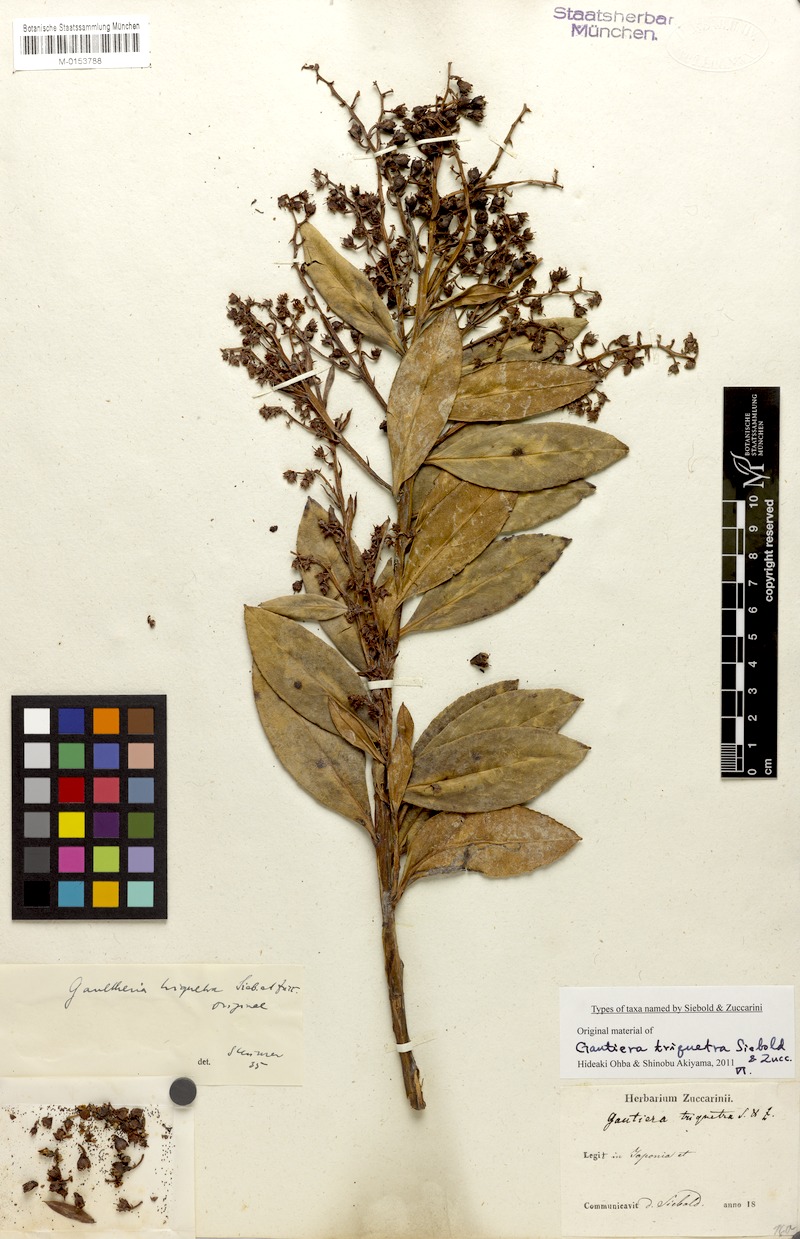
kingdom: Plantae
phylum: Tracheophyta
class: Magnoliopsida
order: Ericales
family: Ericaceae
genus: Leucothoe
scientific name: Leucothoe grayana
